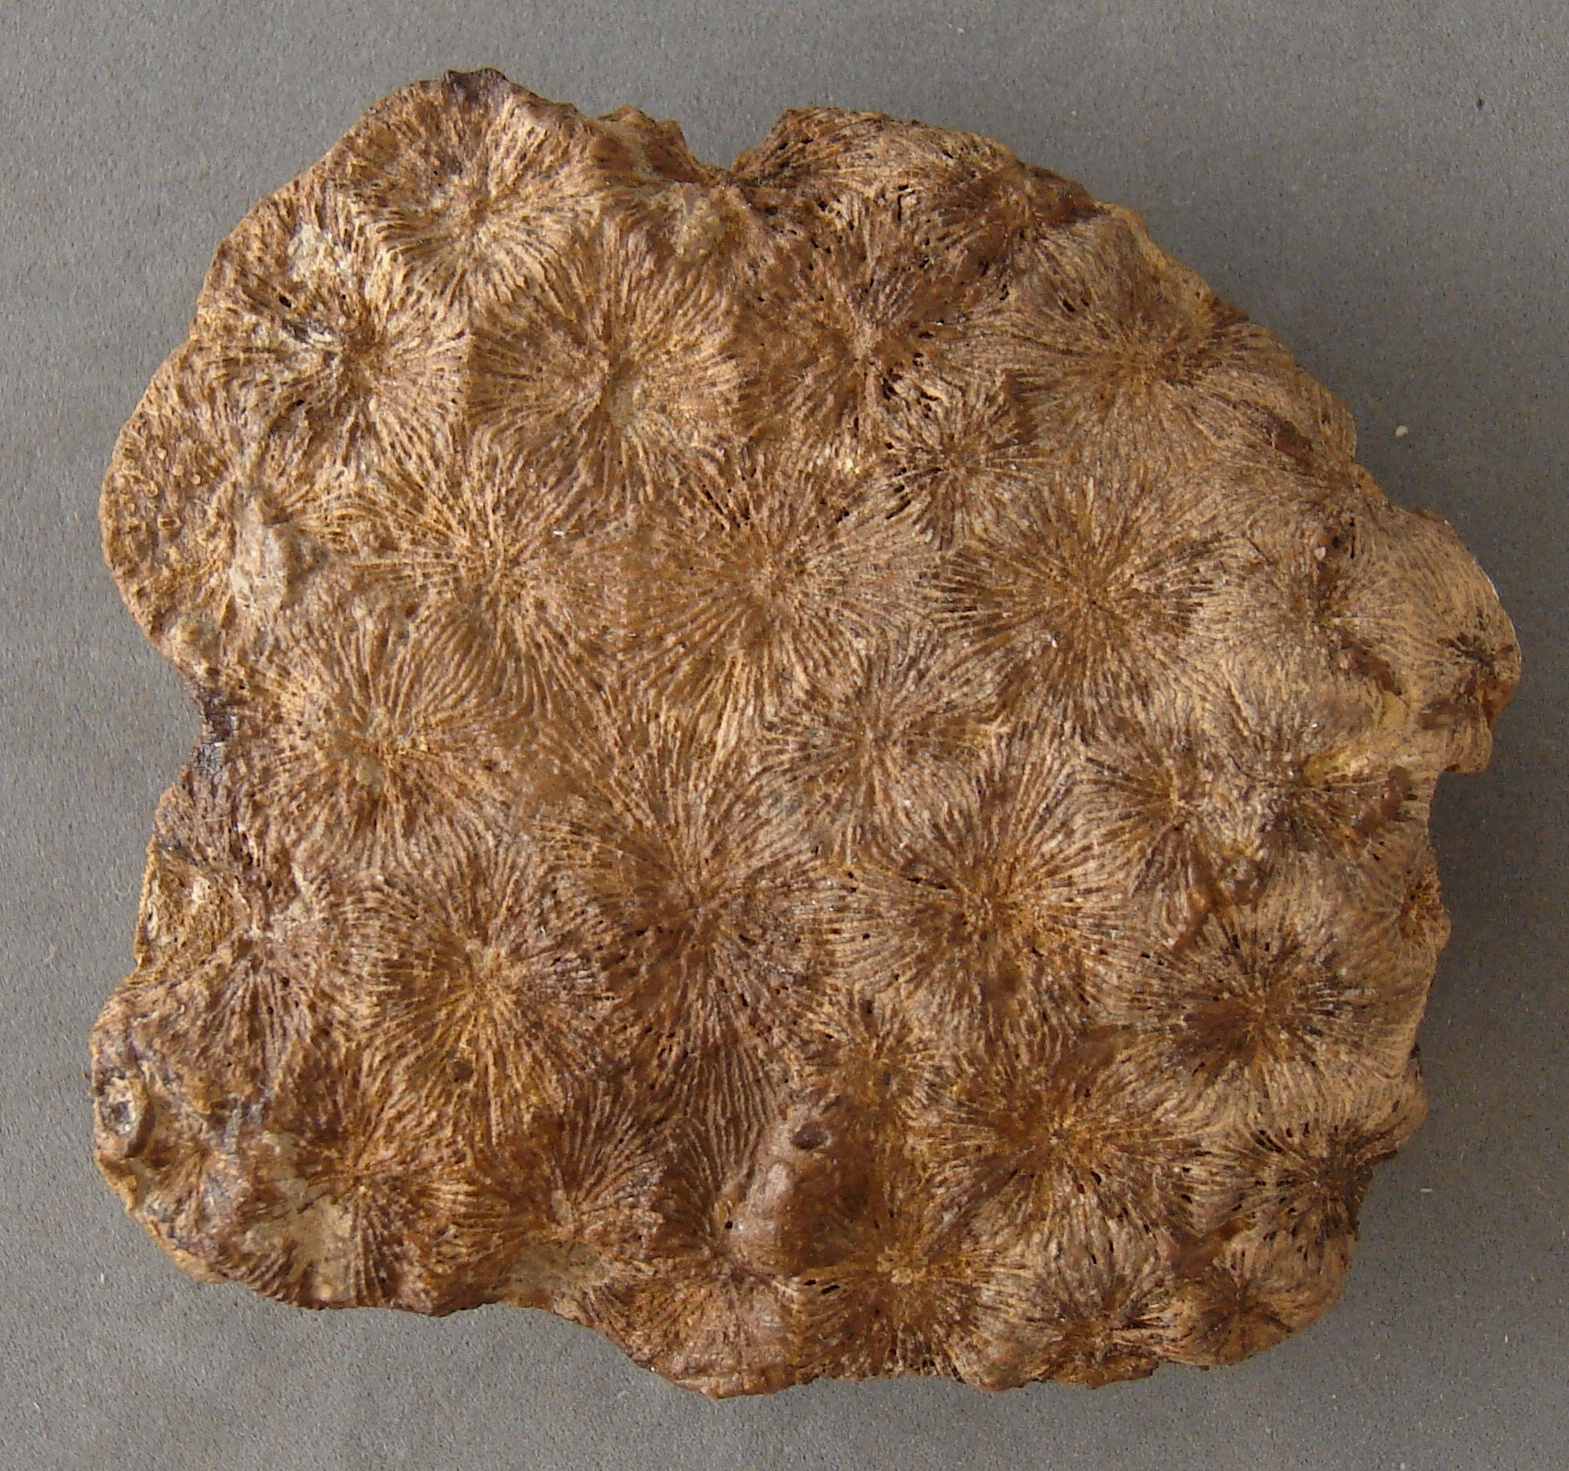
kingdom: Animalia
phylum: Cnidaria
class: Anthozoa
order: Scleractinia
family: Thamnasteriidae
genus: Thamnasteria
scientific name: Thamnasteria
